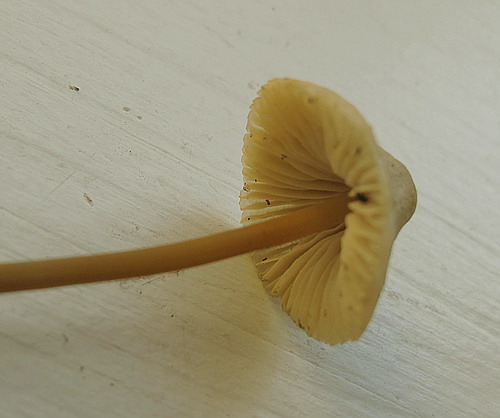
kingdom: Fungi
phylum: Basidiomycota
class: Agaricomycetes
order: Agaricales
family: Mycenaceae
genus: Mycena
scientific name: Mycena arcangeliana
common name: oliven-huesvamp
